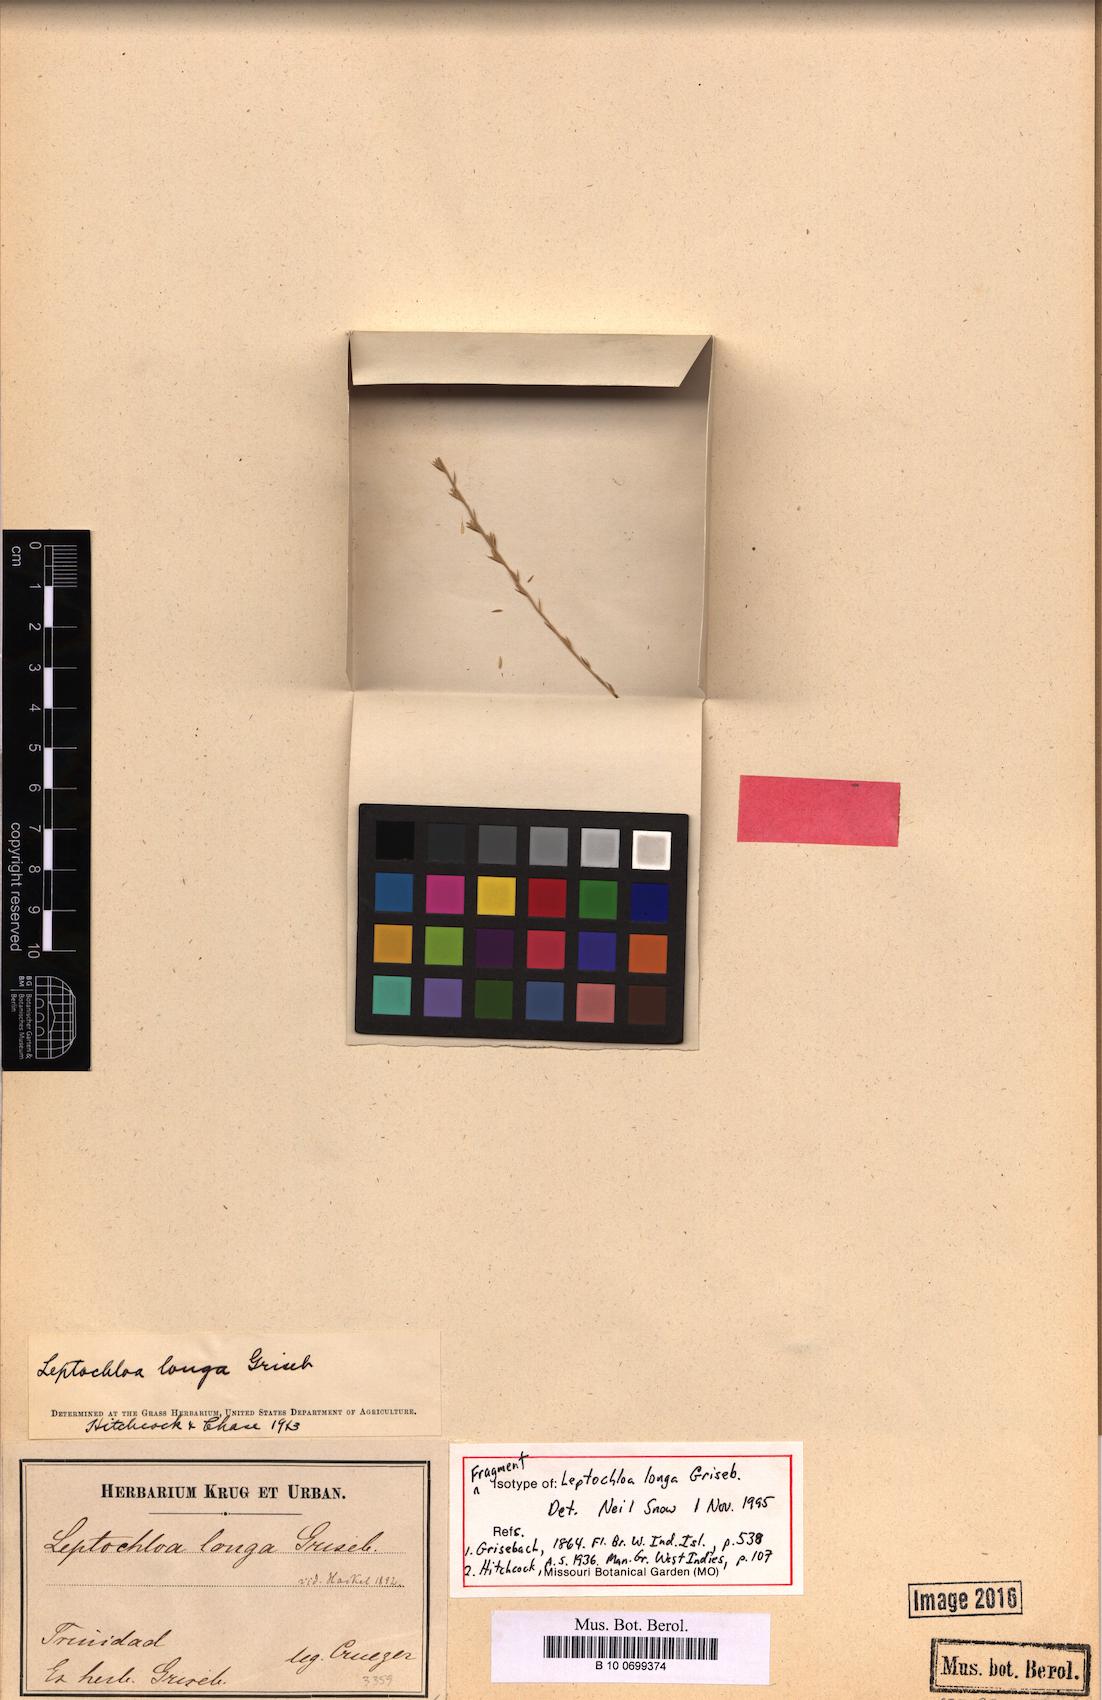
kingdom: Plantae
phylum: Tracheophyta
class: Liliopsida
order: Poales
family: Poaceae
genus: Leptochloa
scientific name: Leptochloa longa
